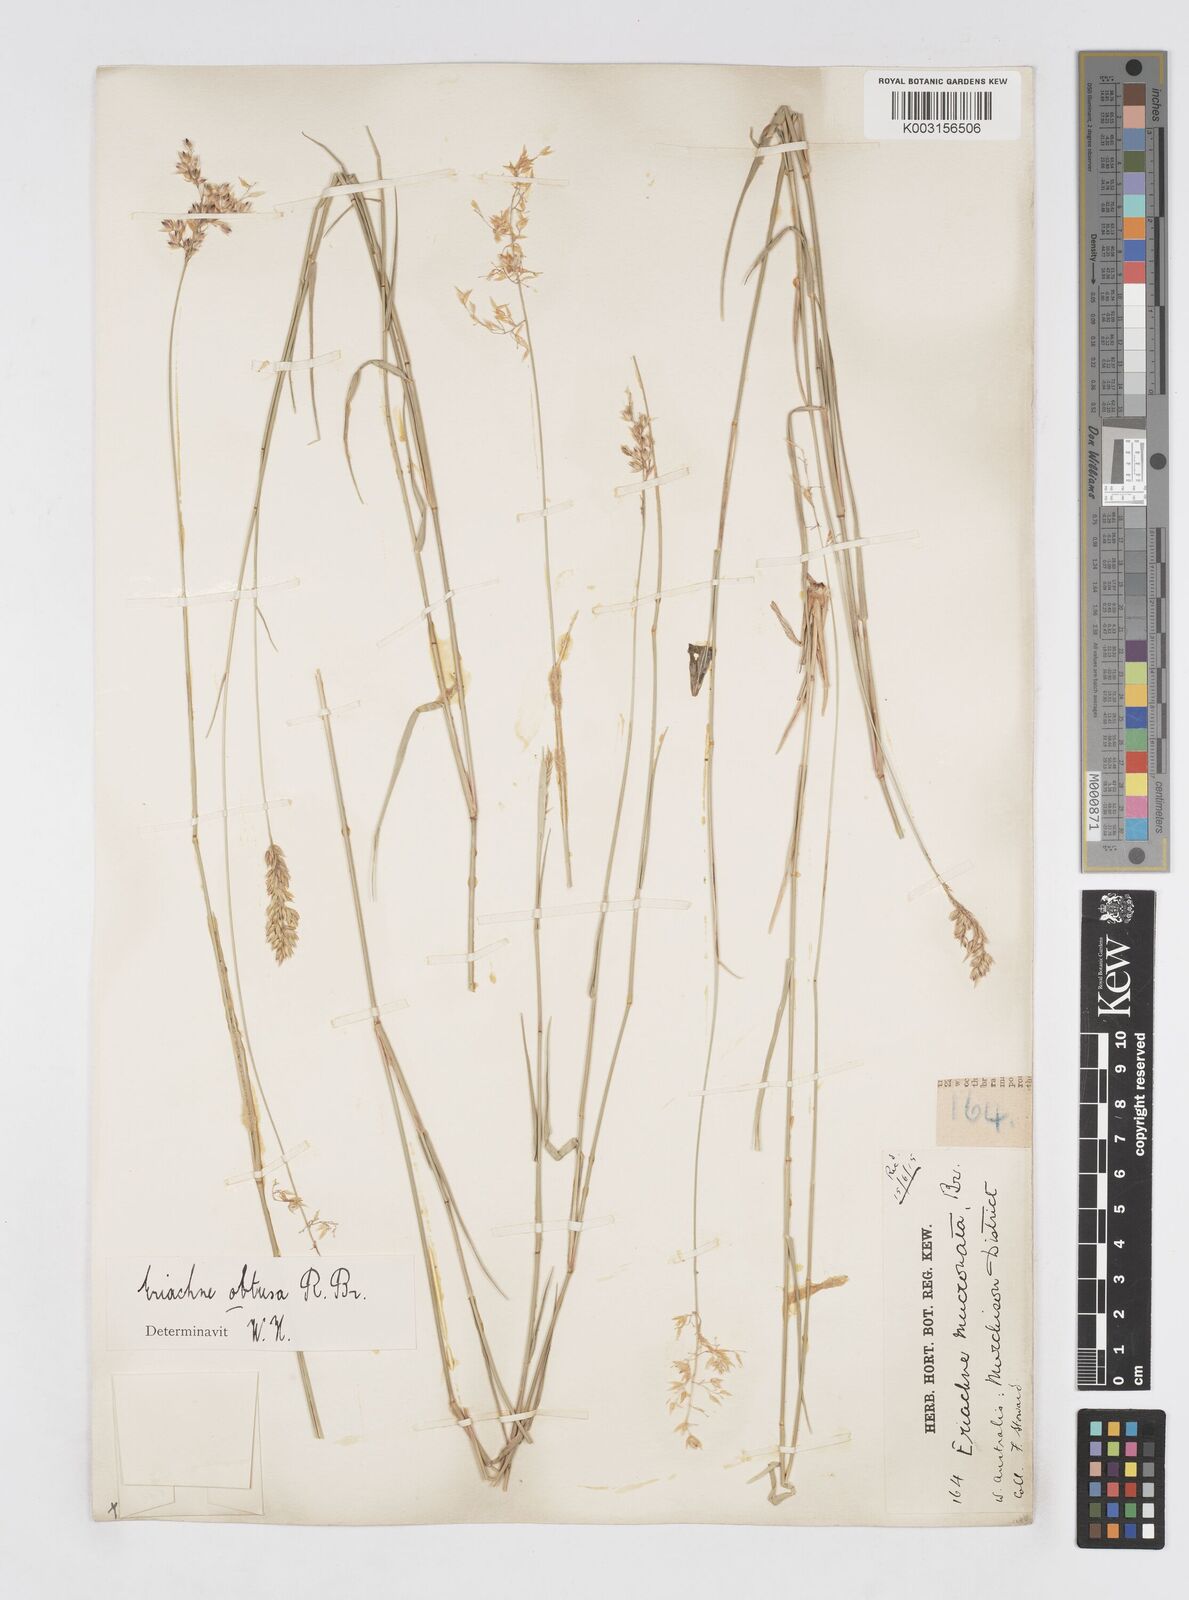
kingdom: Plantae
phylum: Tracheophyta
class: Liliopsida
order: Poales
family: Poaceae
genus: Eriachne
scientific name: Eriachne obtusa
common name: Northern wanderrie grass
